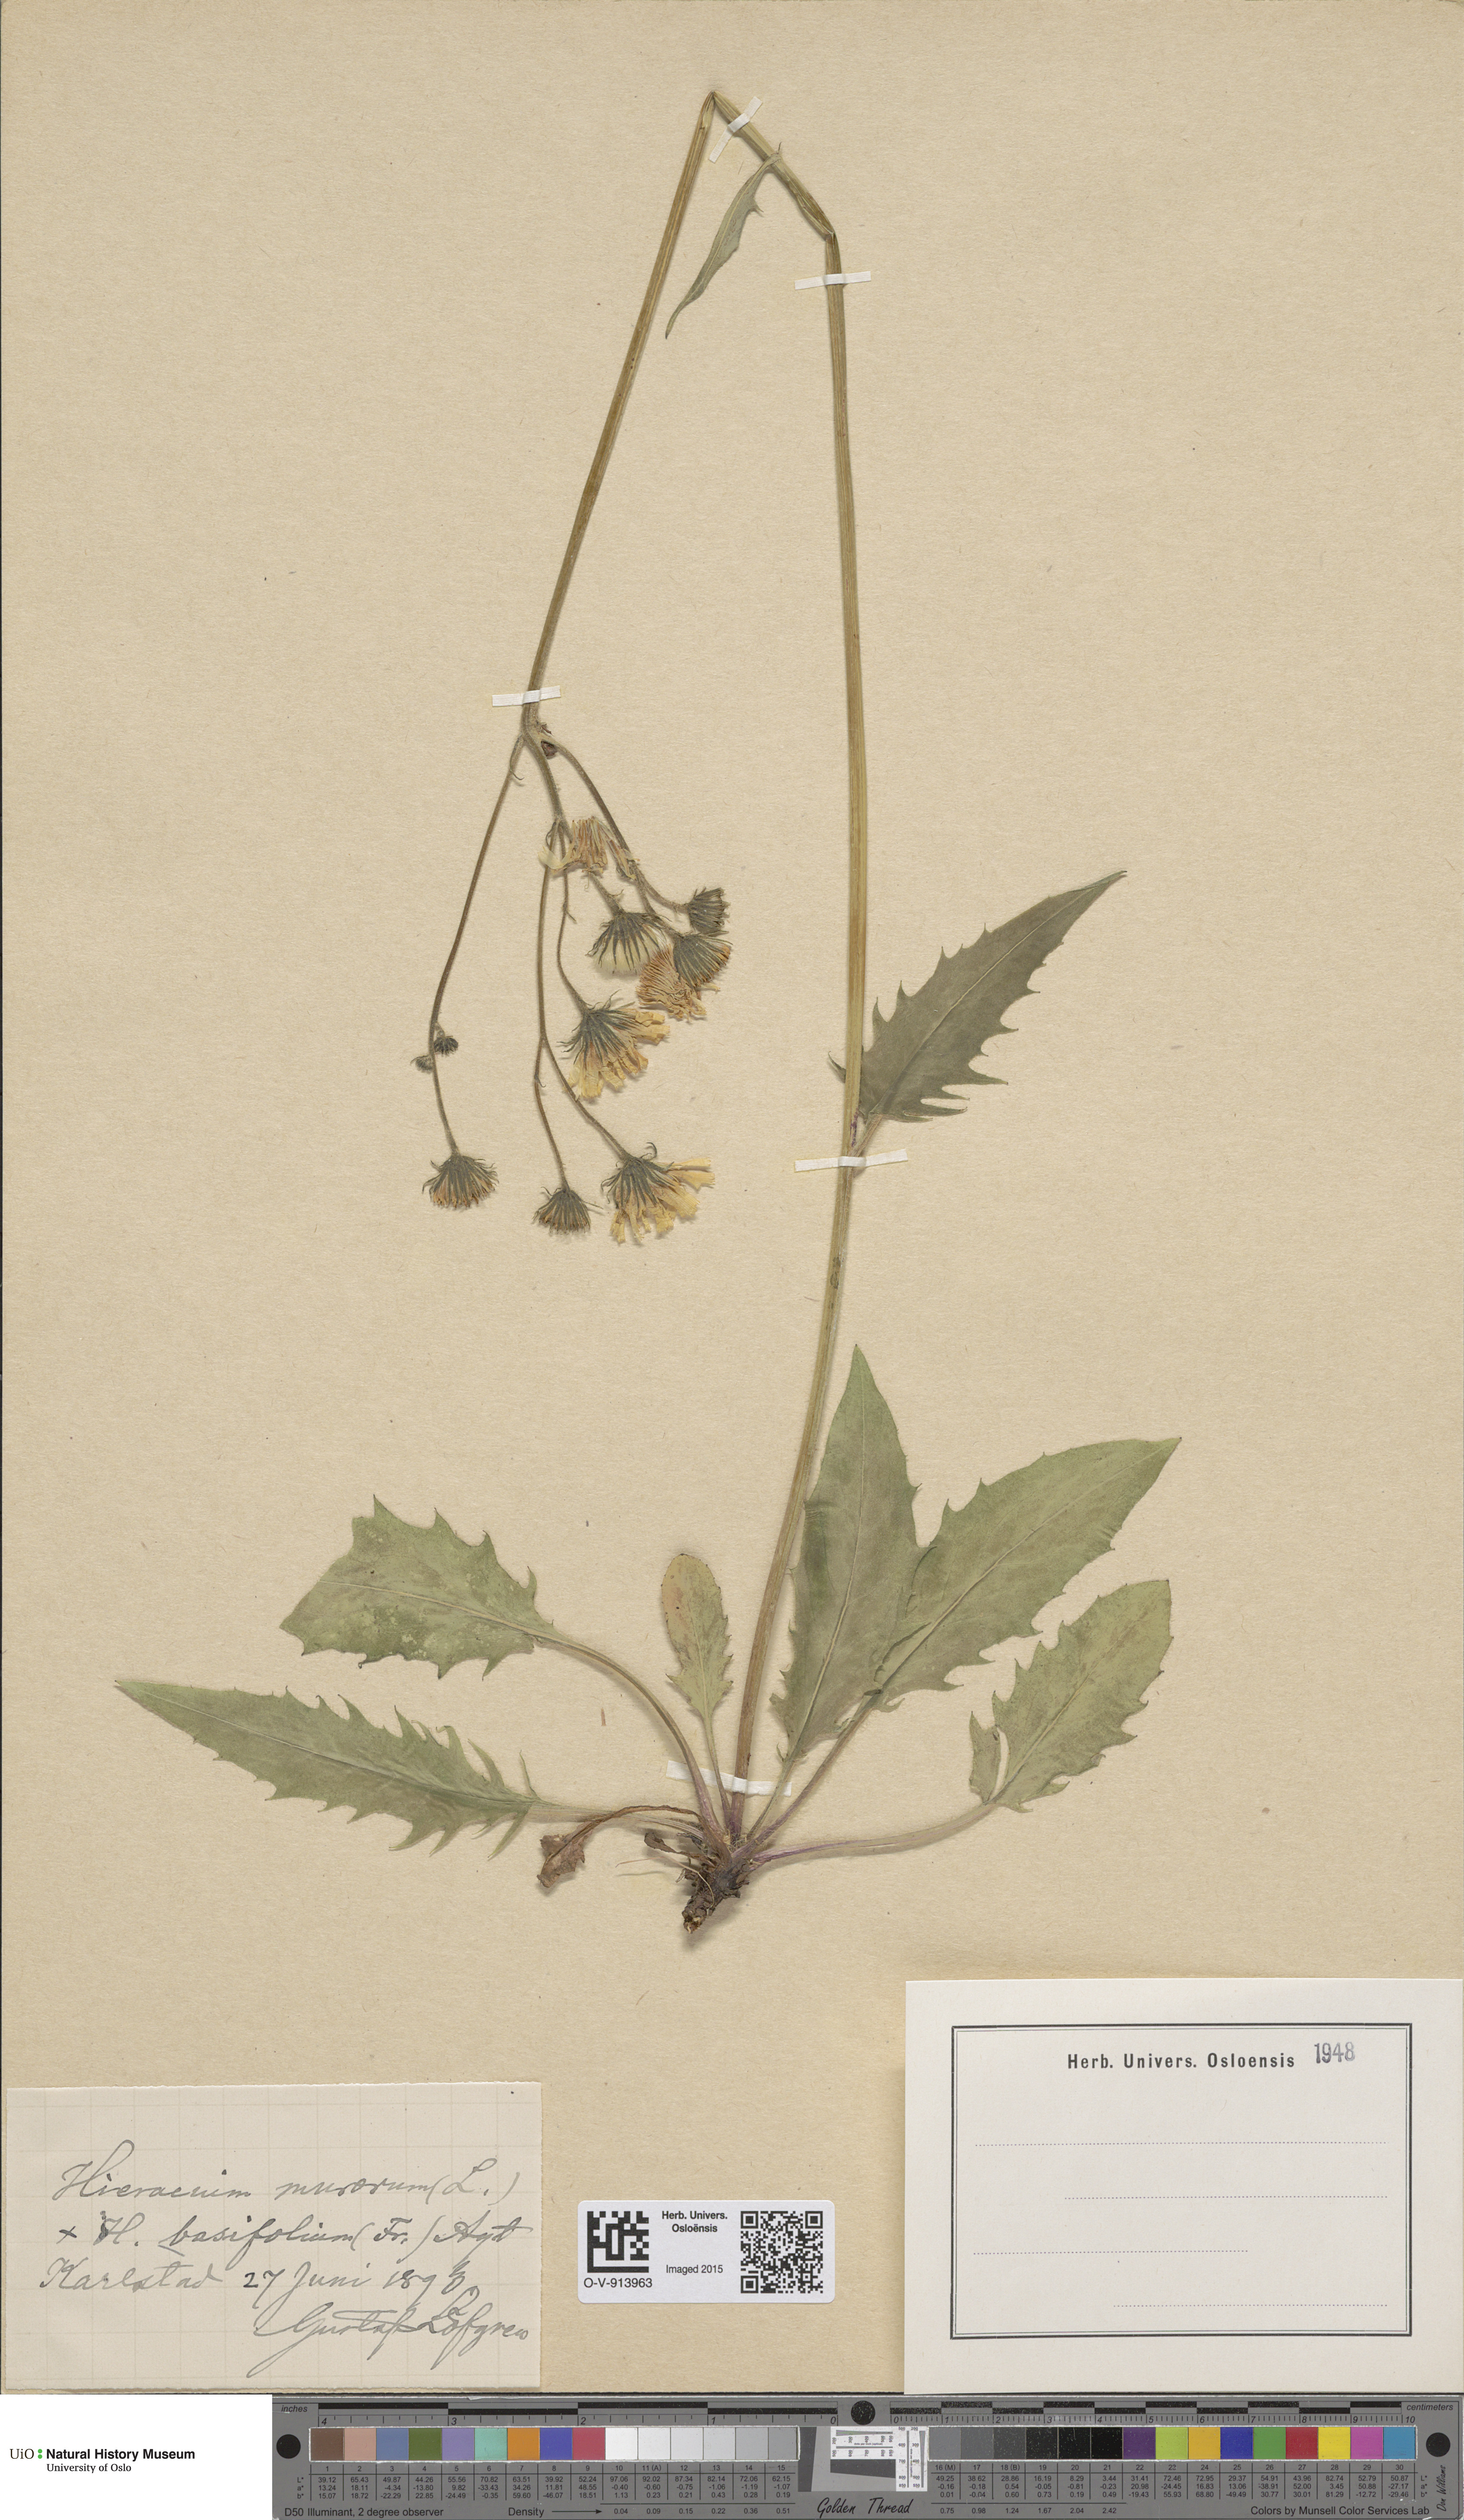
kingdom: Plantae
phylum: Tracheophyta
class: Magnoliopsida
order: Asterales
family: Asteraceae
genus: Hieracium
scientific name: Hieracium basifolium
